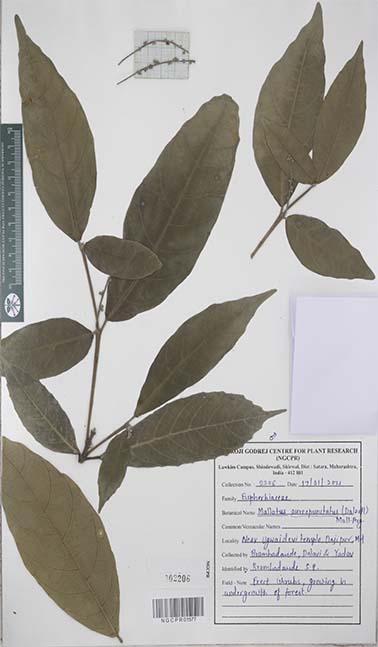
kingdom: Plantae
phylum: Tracheophyta
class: Magnoliopsida
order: Malpighiales
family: Euphorbiaceae
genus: Mallotus
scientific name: Mallotus resinosus
